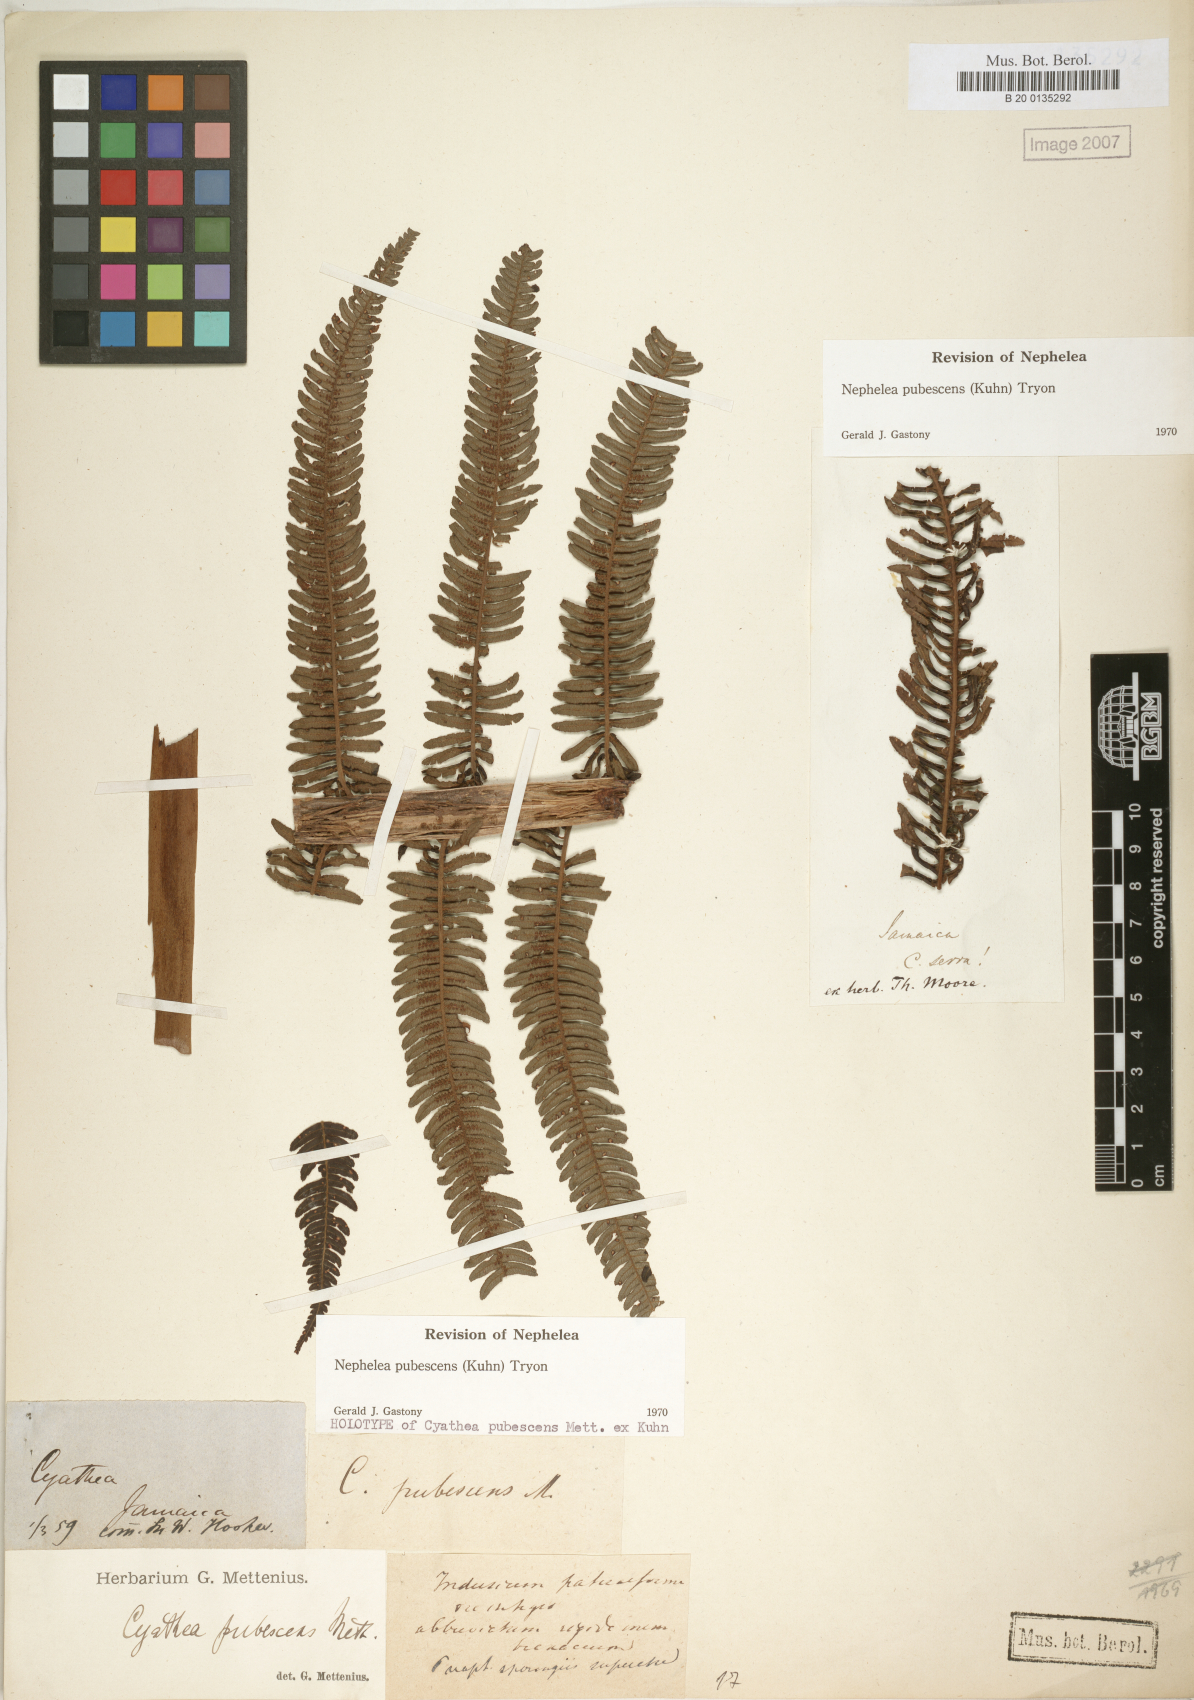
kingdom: Plantae
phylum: Tracheophyta
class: Polypodiopsida
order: Cyatheales
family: Cyatheaceae
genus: Alsophila
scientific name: Alsophila auneae
